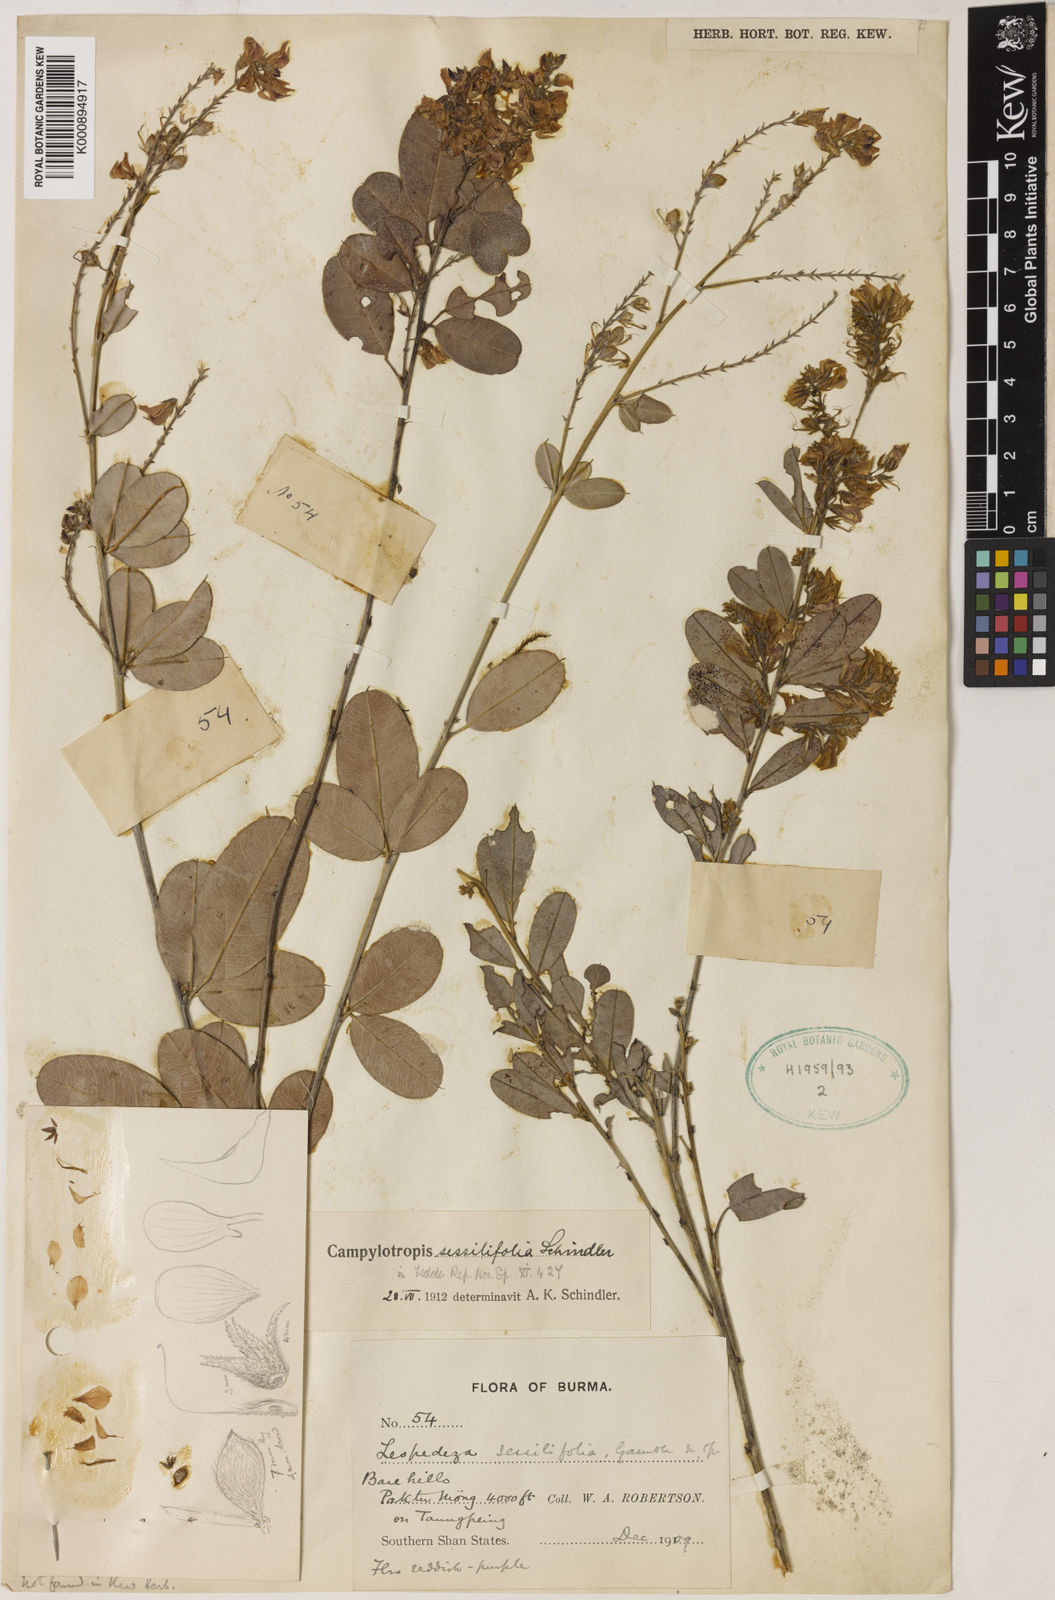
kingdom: Plantae
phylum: Tracheophyta
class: Magnoliopsida
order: Fabales
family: Fabaceae
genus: Campylotropis
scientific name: Campylotropis stenocarpa
